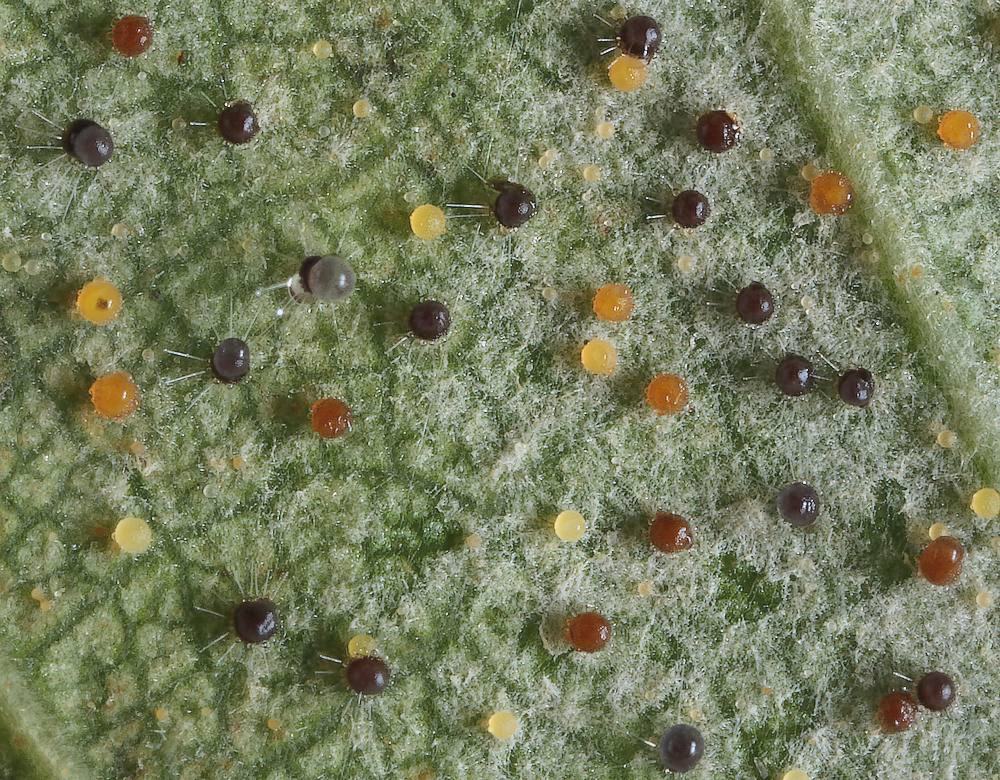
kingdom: Fungi
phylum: Ascomycota
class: Leotiomycetes
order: Helotiales
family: Erysiphaceae
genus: Phyllactinia
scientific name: Phyllactinia guttata
